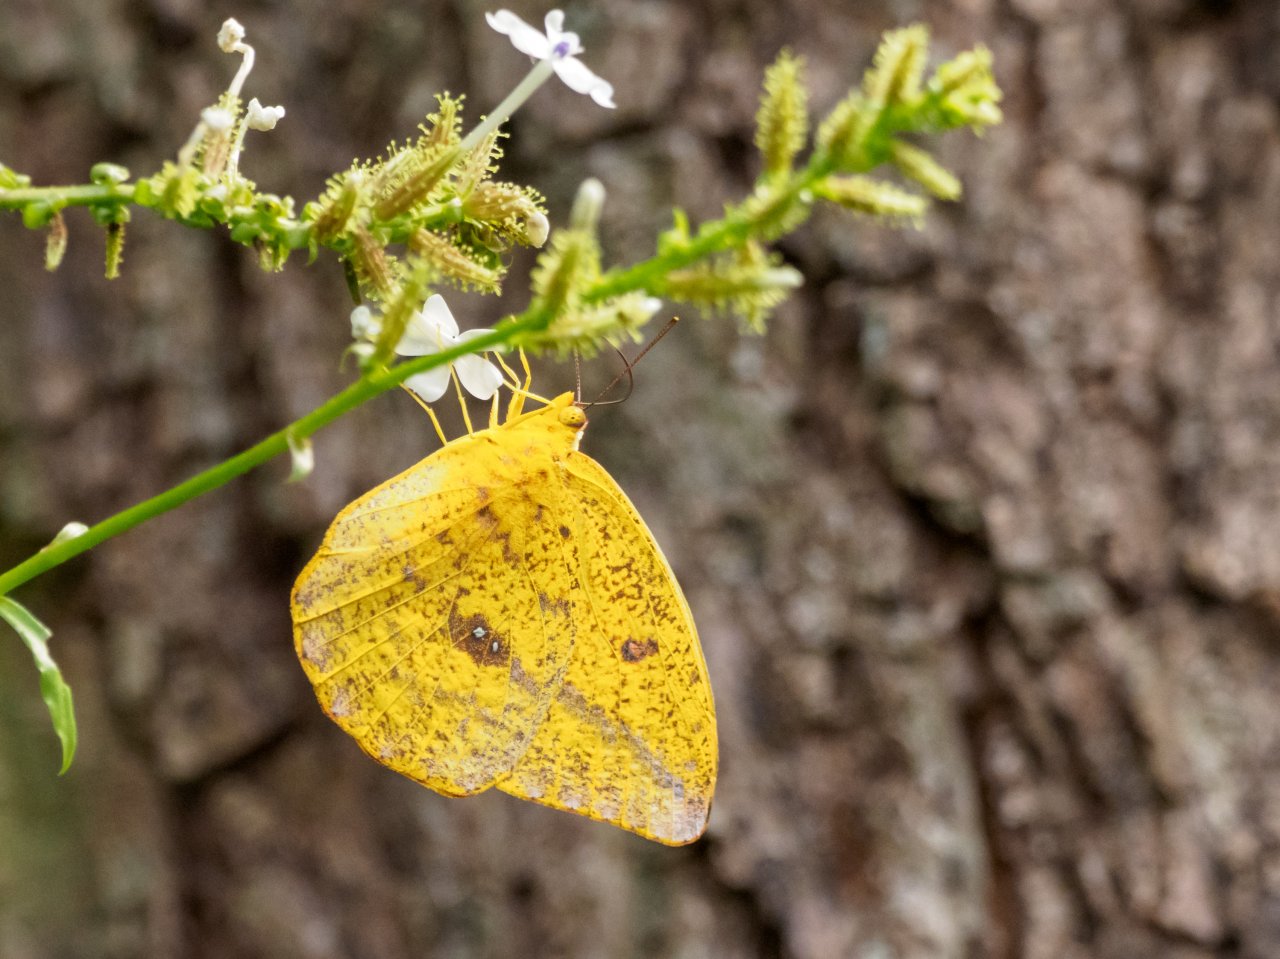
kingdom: Animalia
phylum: Arthropoda
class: Insecta
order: Lepidoptera
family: Pieridae
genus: Phoebis
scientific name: Phoebis agarithe
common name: Large Orange Sulphur
